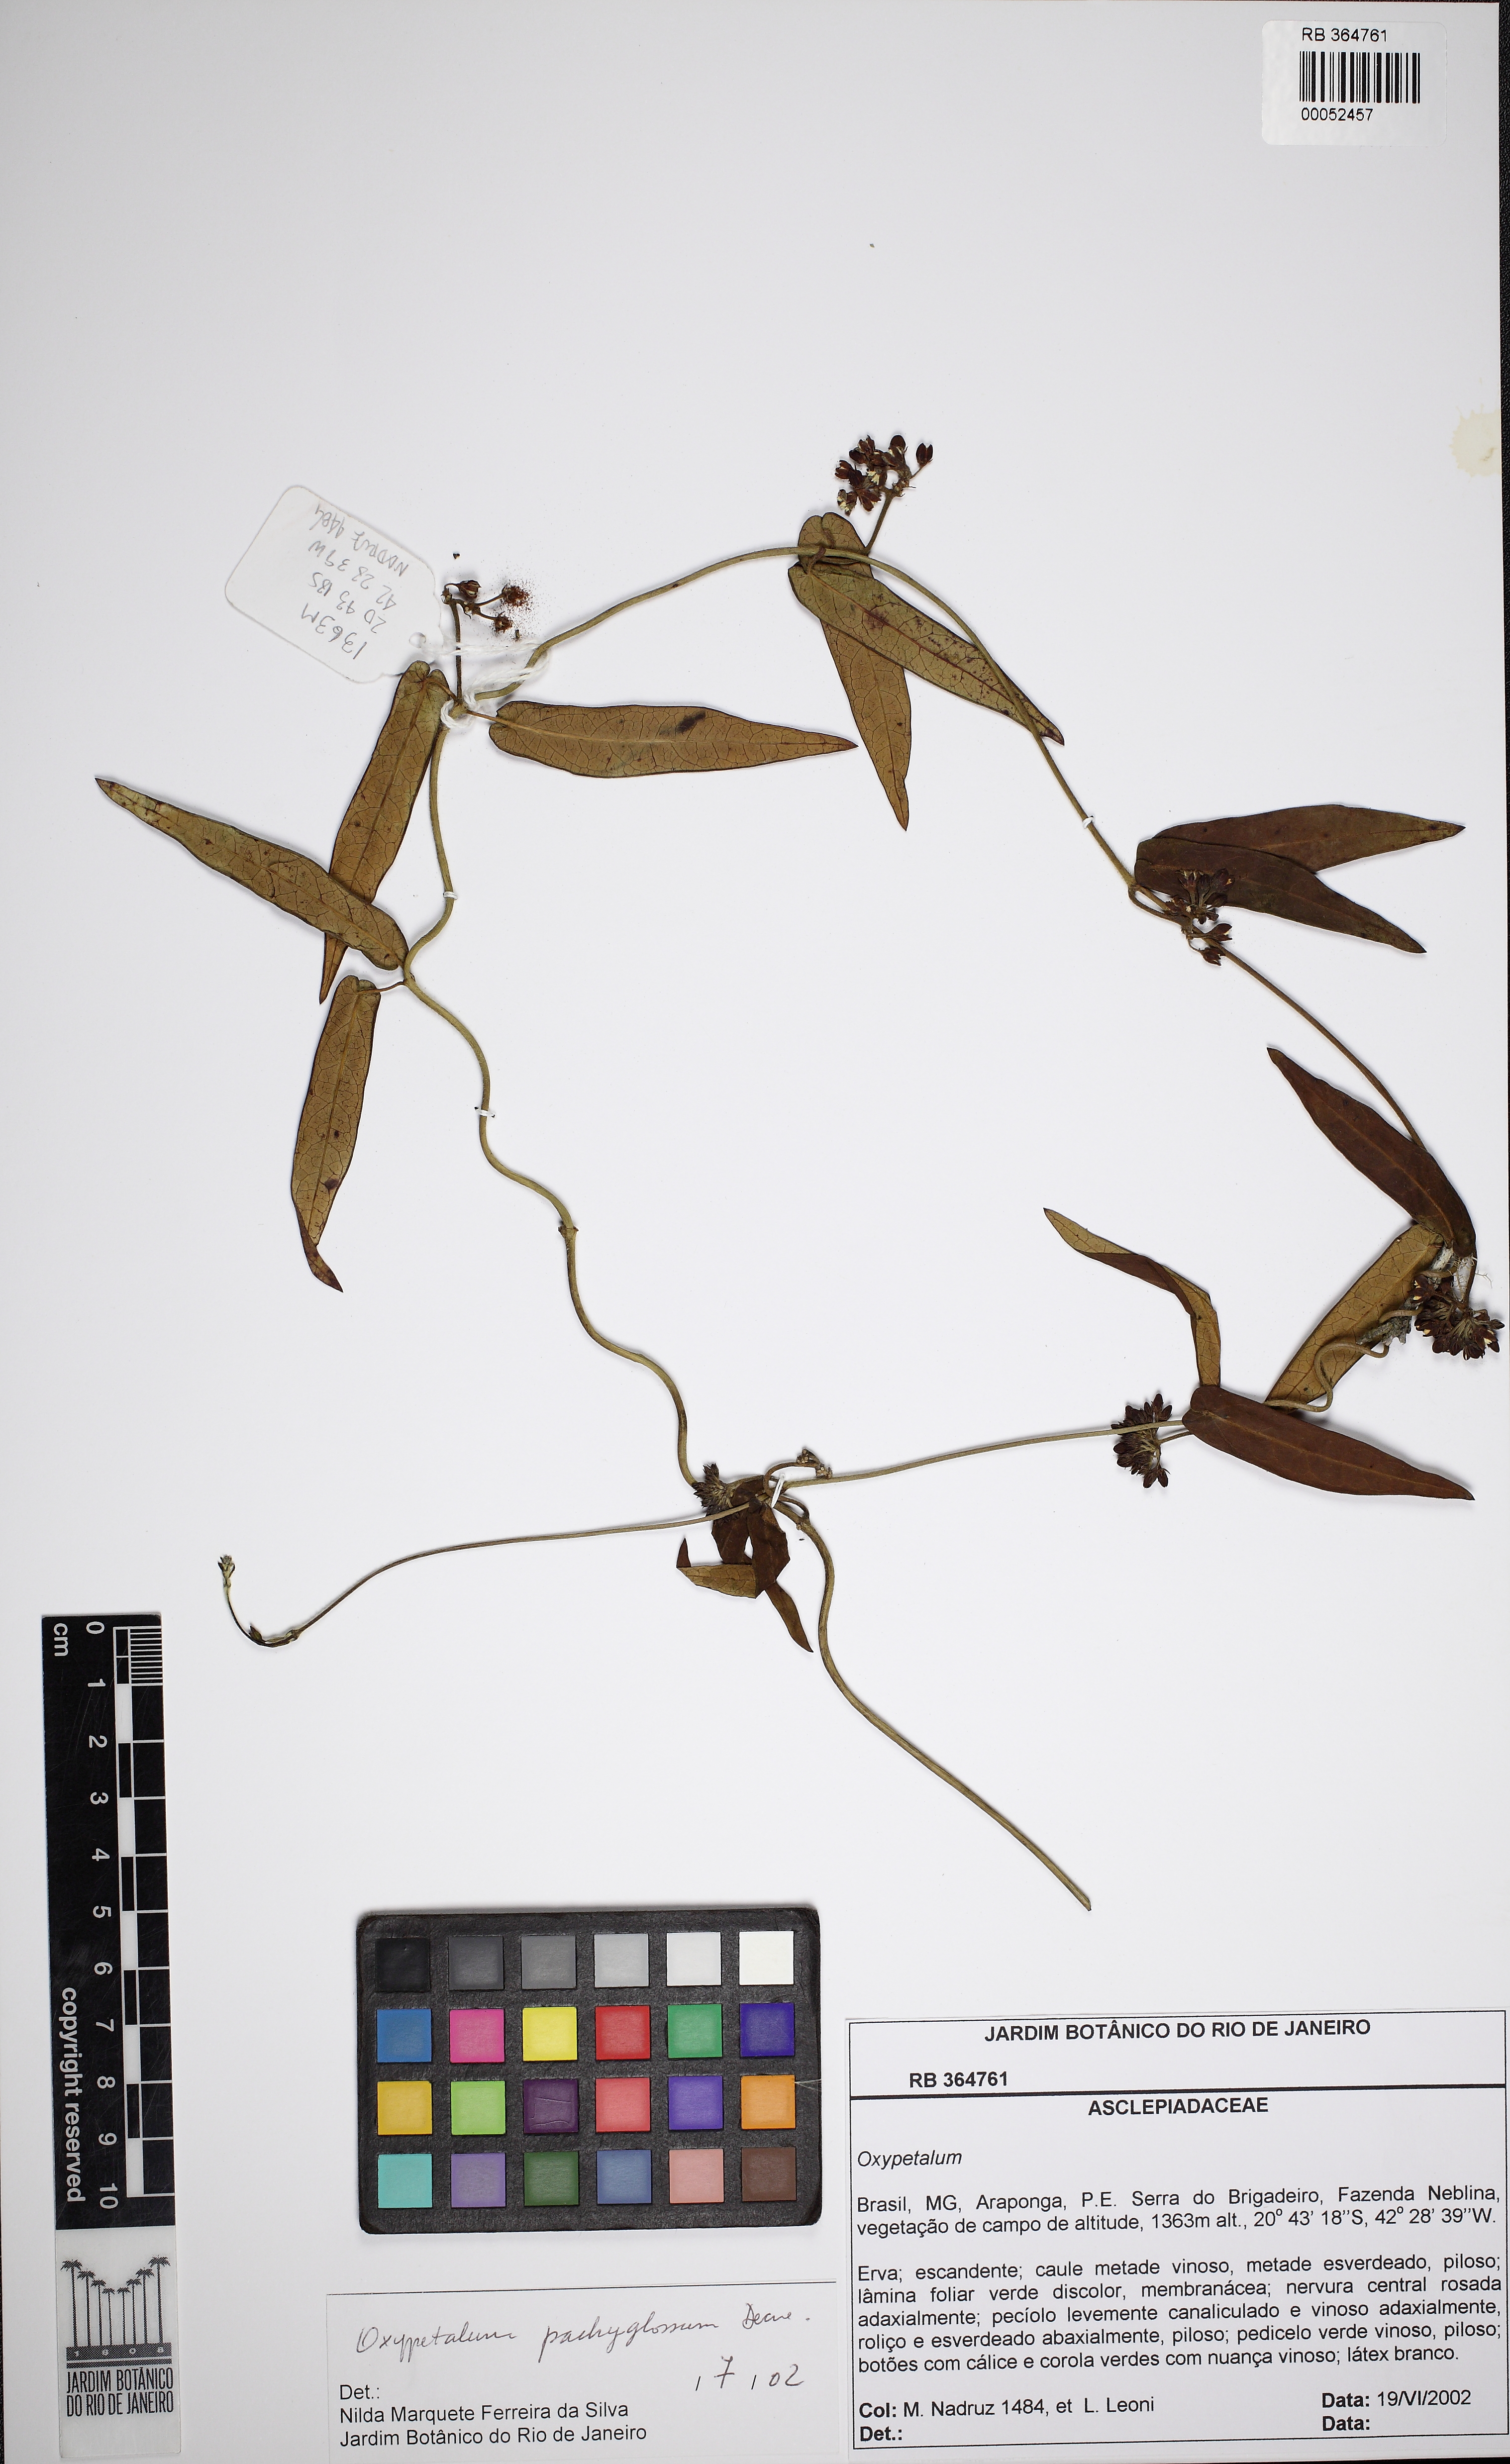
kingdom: Plantae
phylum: Tracheophyta
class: Magnoliopsida
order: Gentianales
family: Apocynaceae
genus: Oxypetalum
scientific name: Oxypetalum pachygynum
